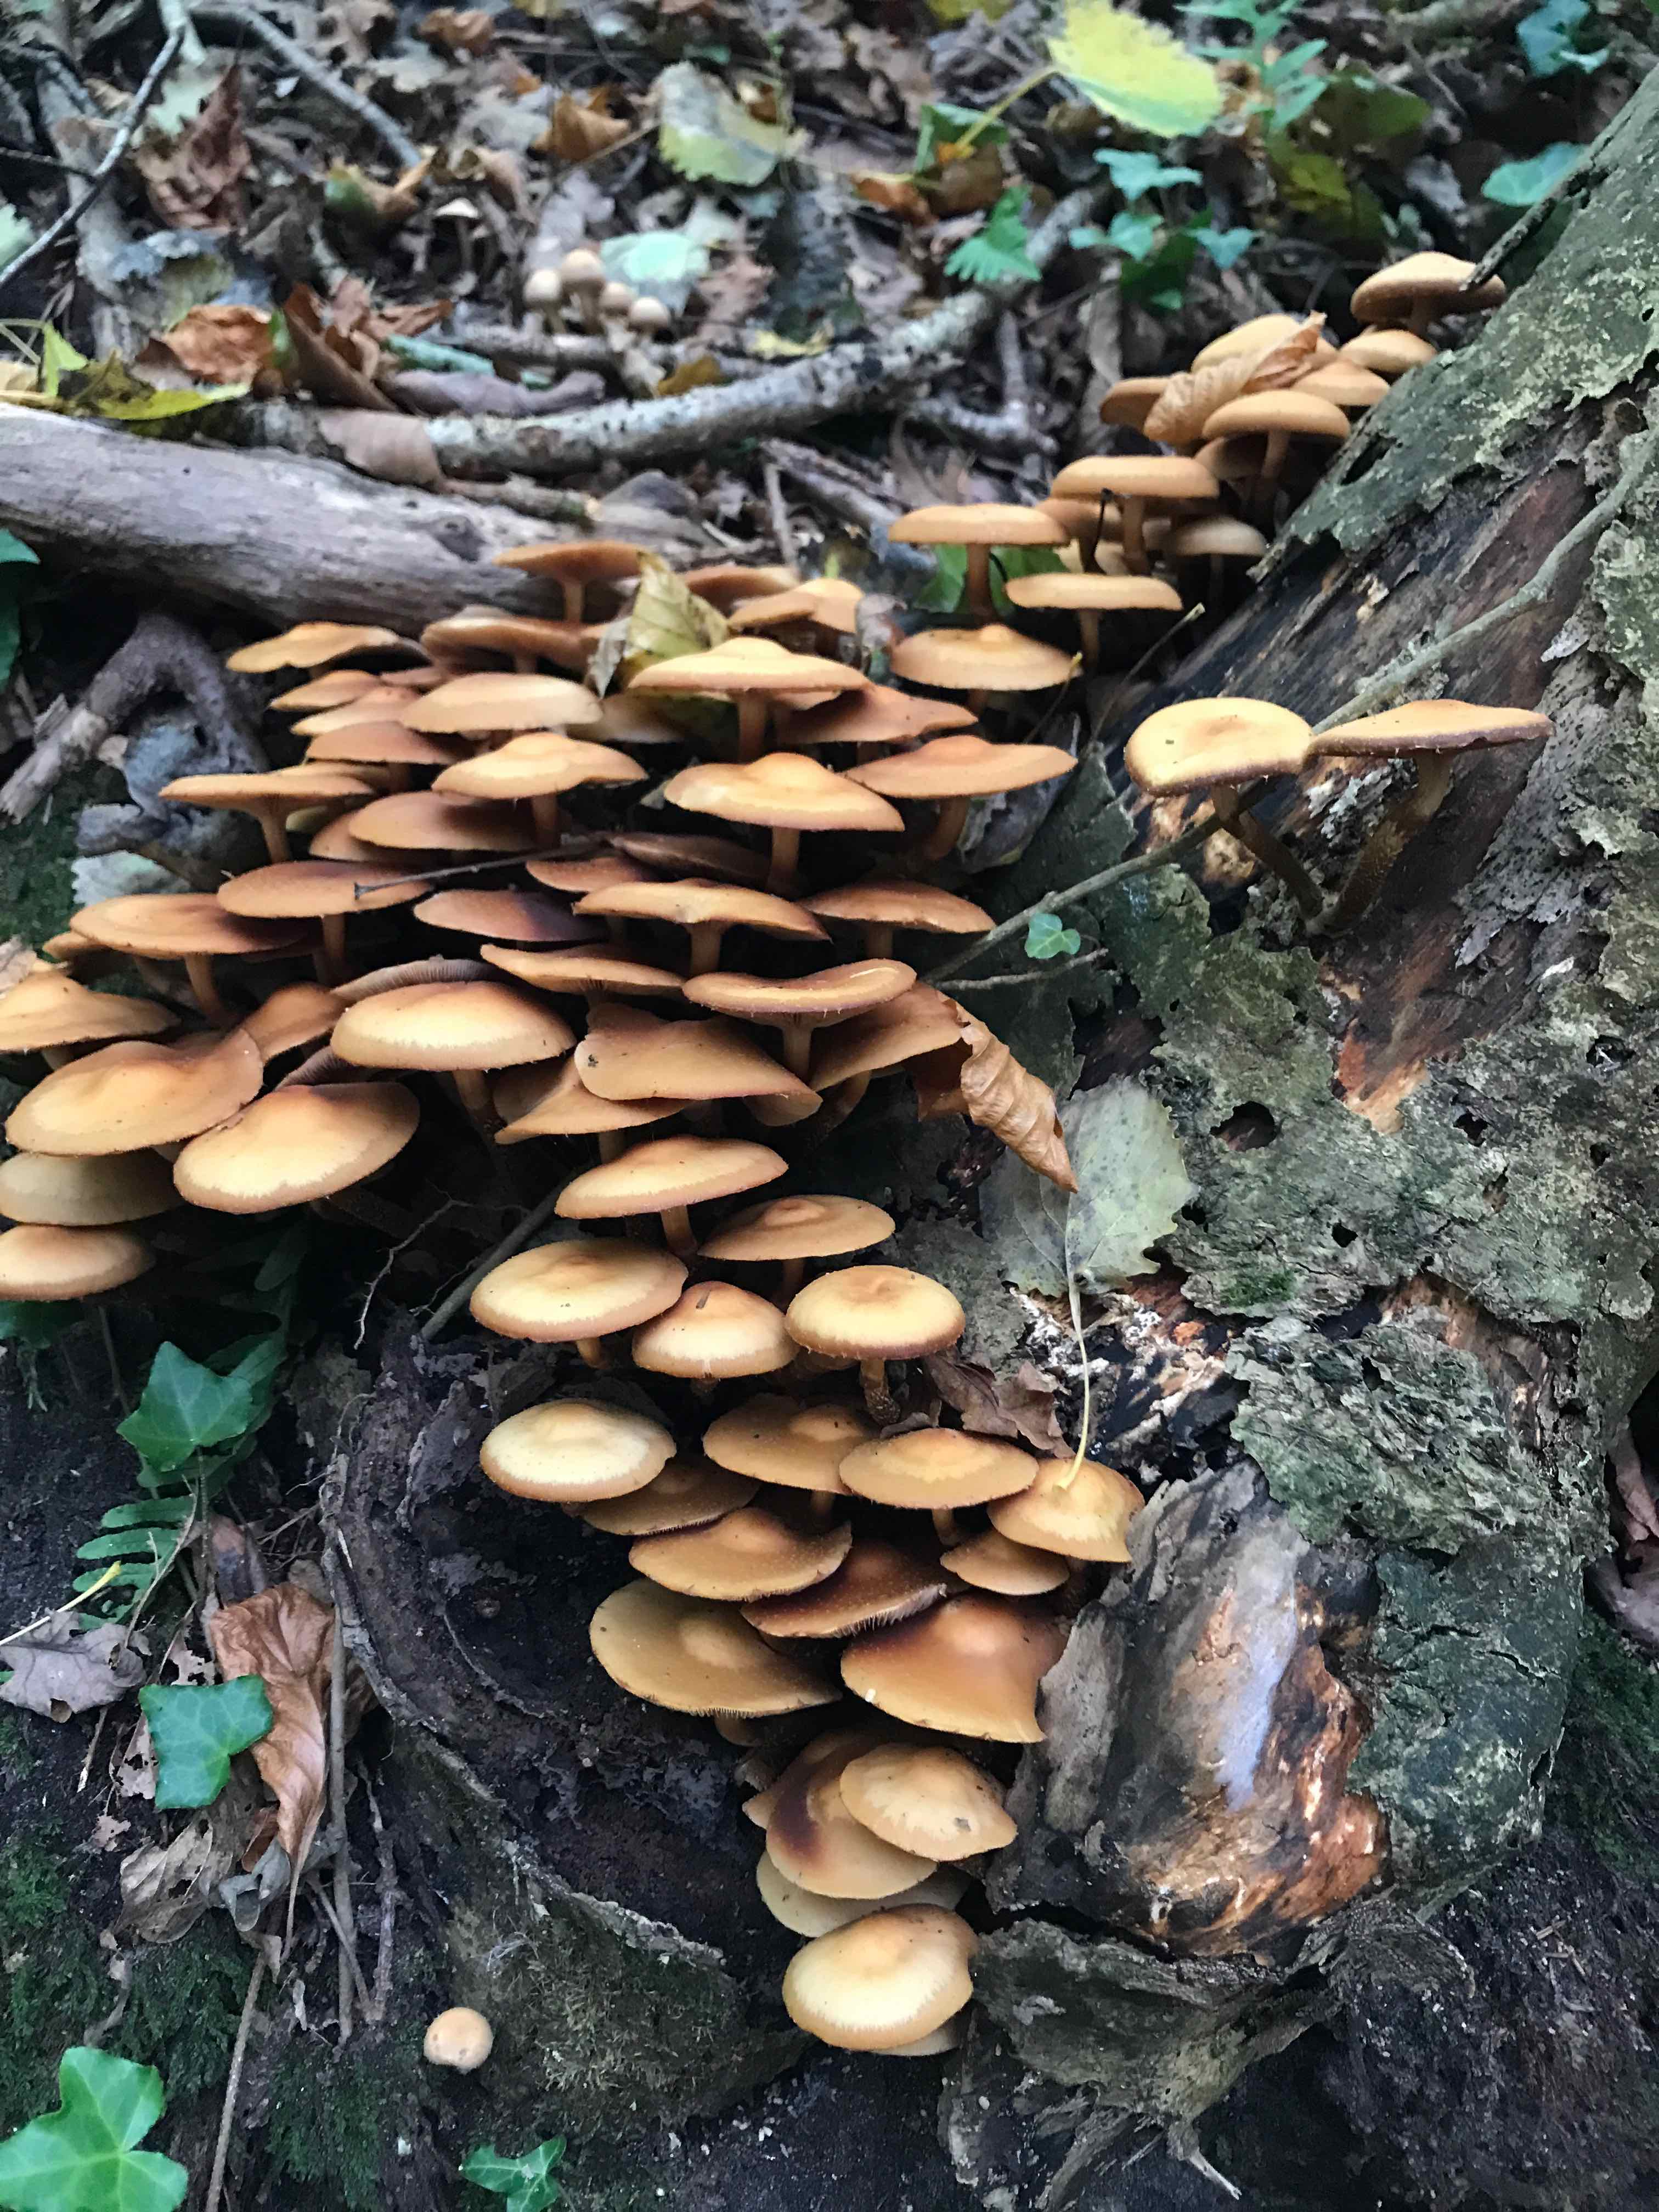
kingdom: Fungi
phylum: Basidiomycota
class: Agaricomycetes
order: Agaricales
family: Strophariaceae
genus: Kuehneromyces
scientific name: Kuehneromyces mutabilis
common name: foranderlig skælhat
